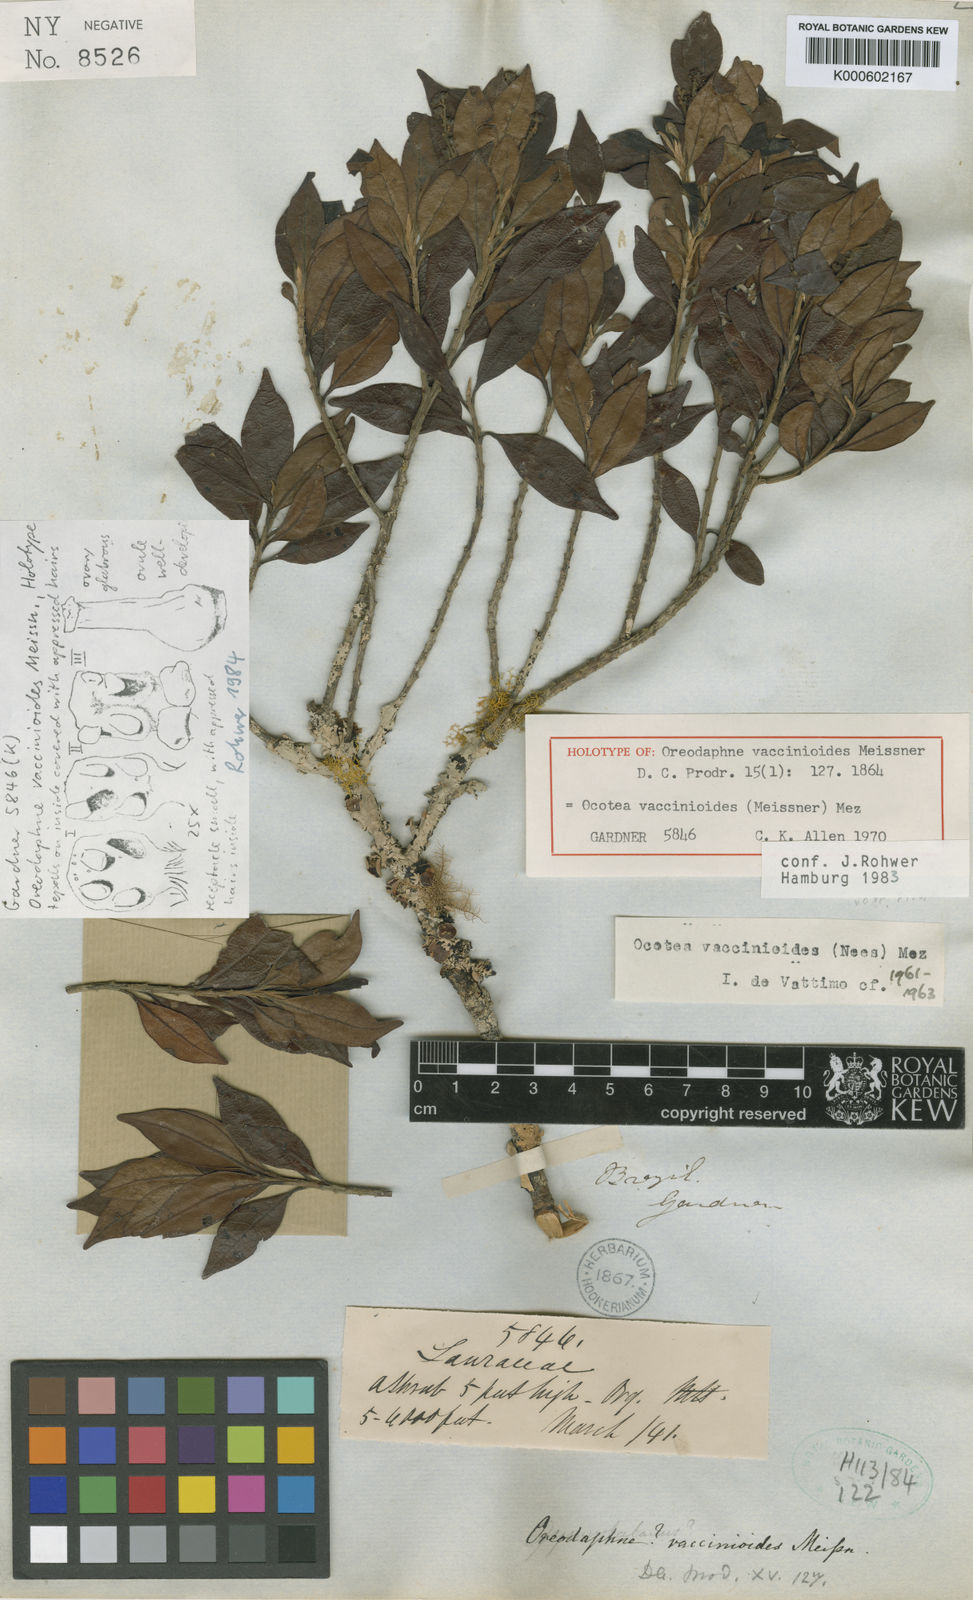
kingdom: Plantae
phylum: Tracheophyta
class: Magnoliopsida
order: Laurales
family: Lauraceae
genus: Ocotea
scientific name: Ocotea vaccinioides
